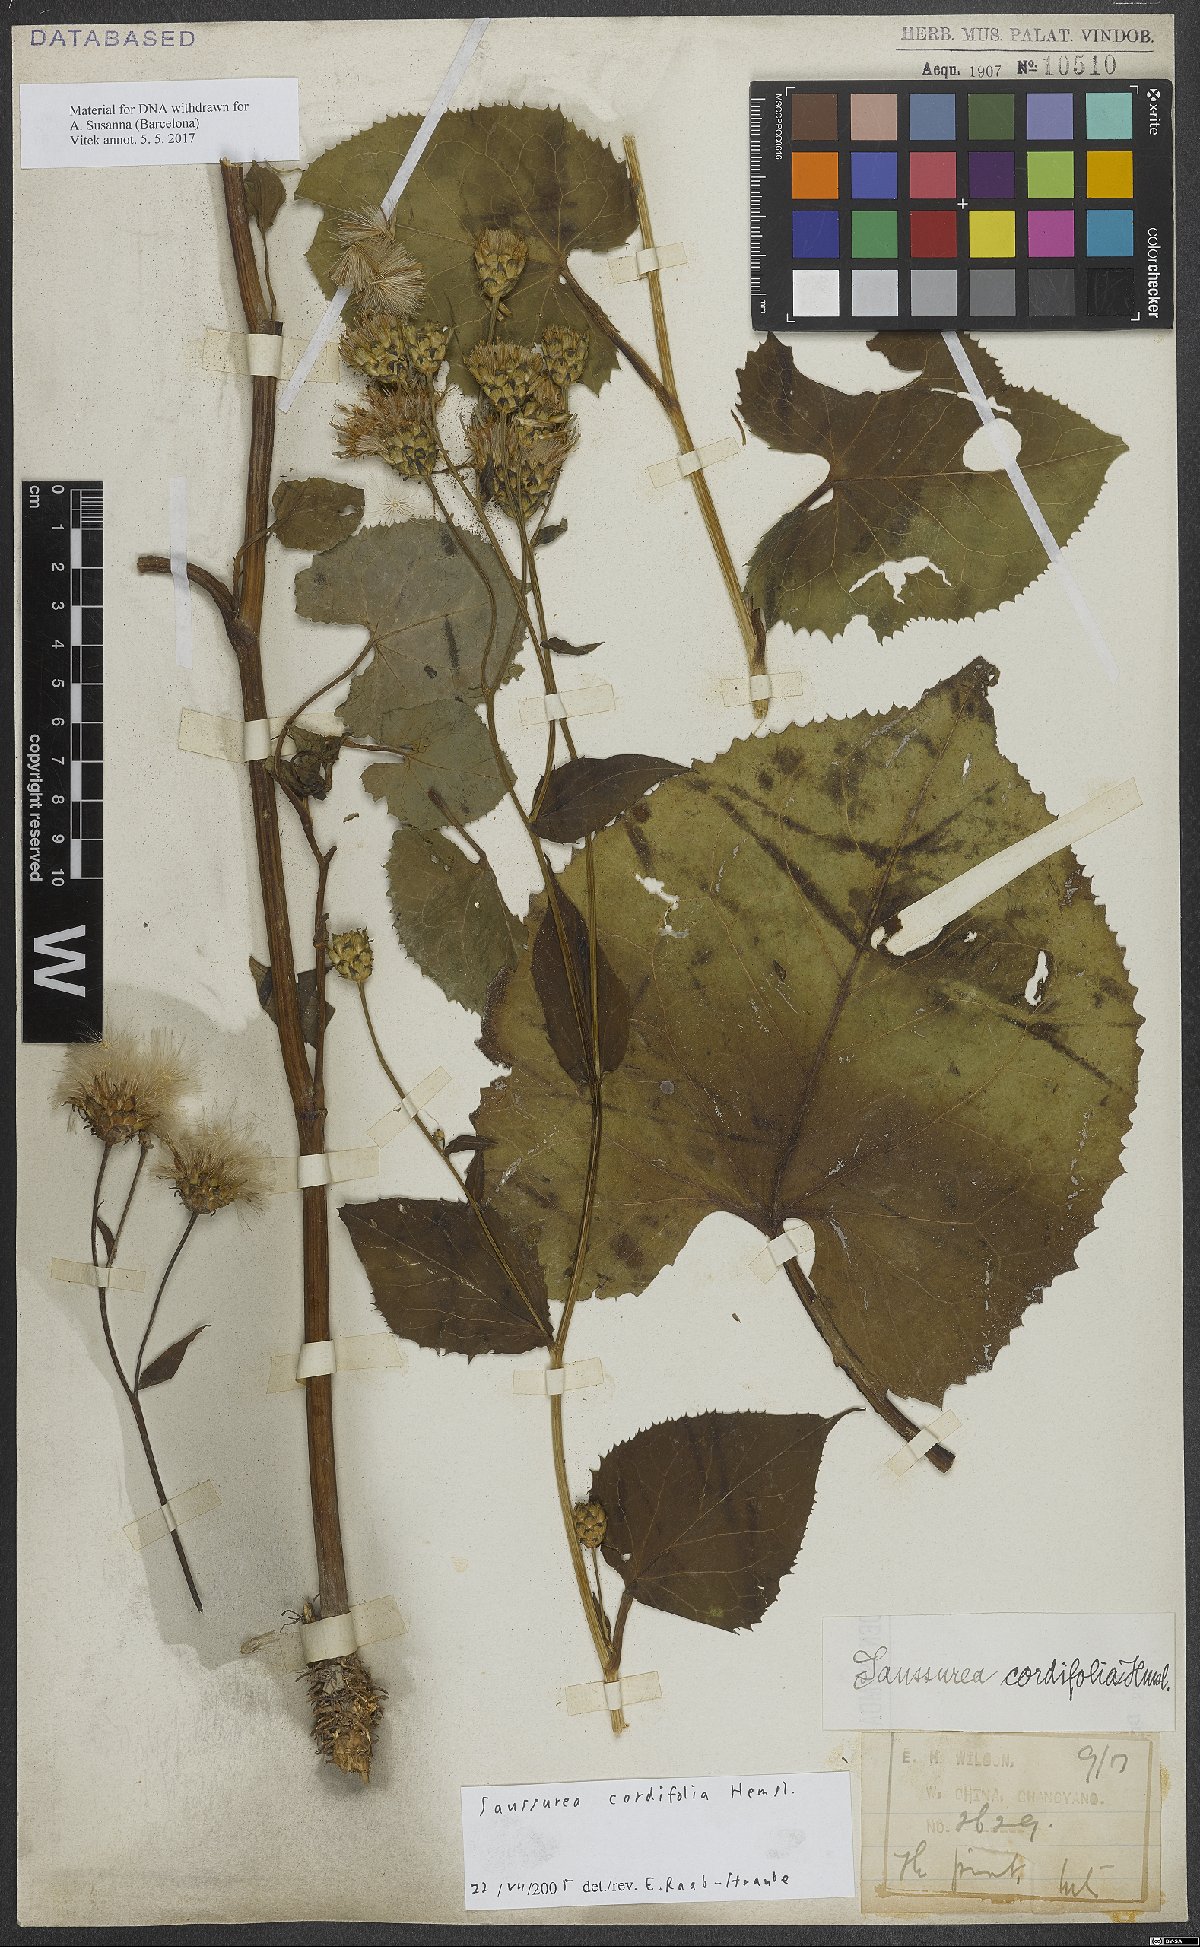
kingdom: Plantae
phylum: Tracheophyta
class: Magnoliopsida
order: Asterales
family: Asteraceae
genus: Saussurea
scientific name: Saussurea cordifolia
